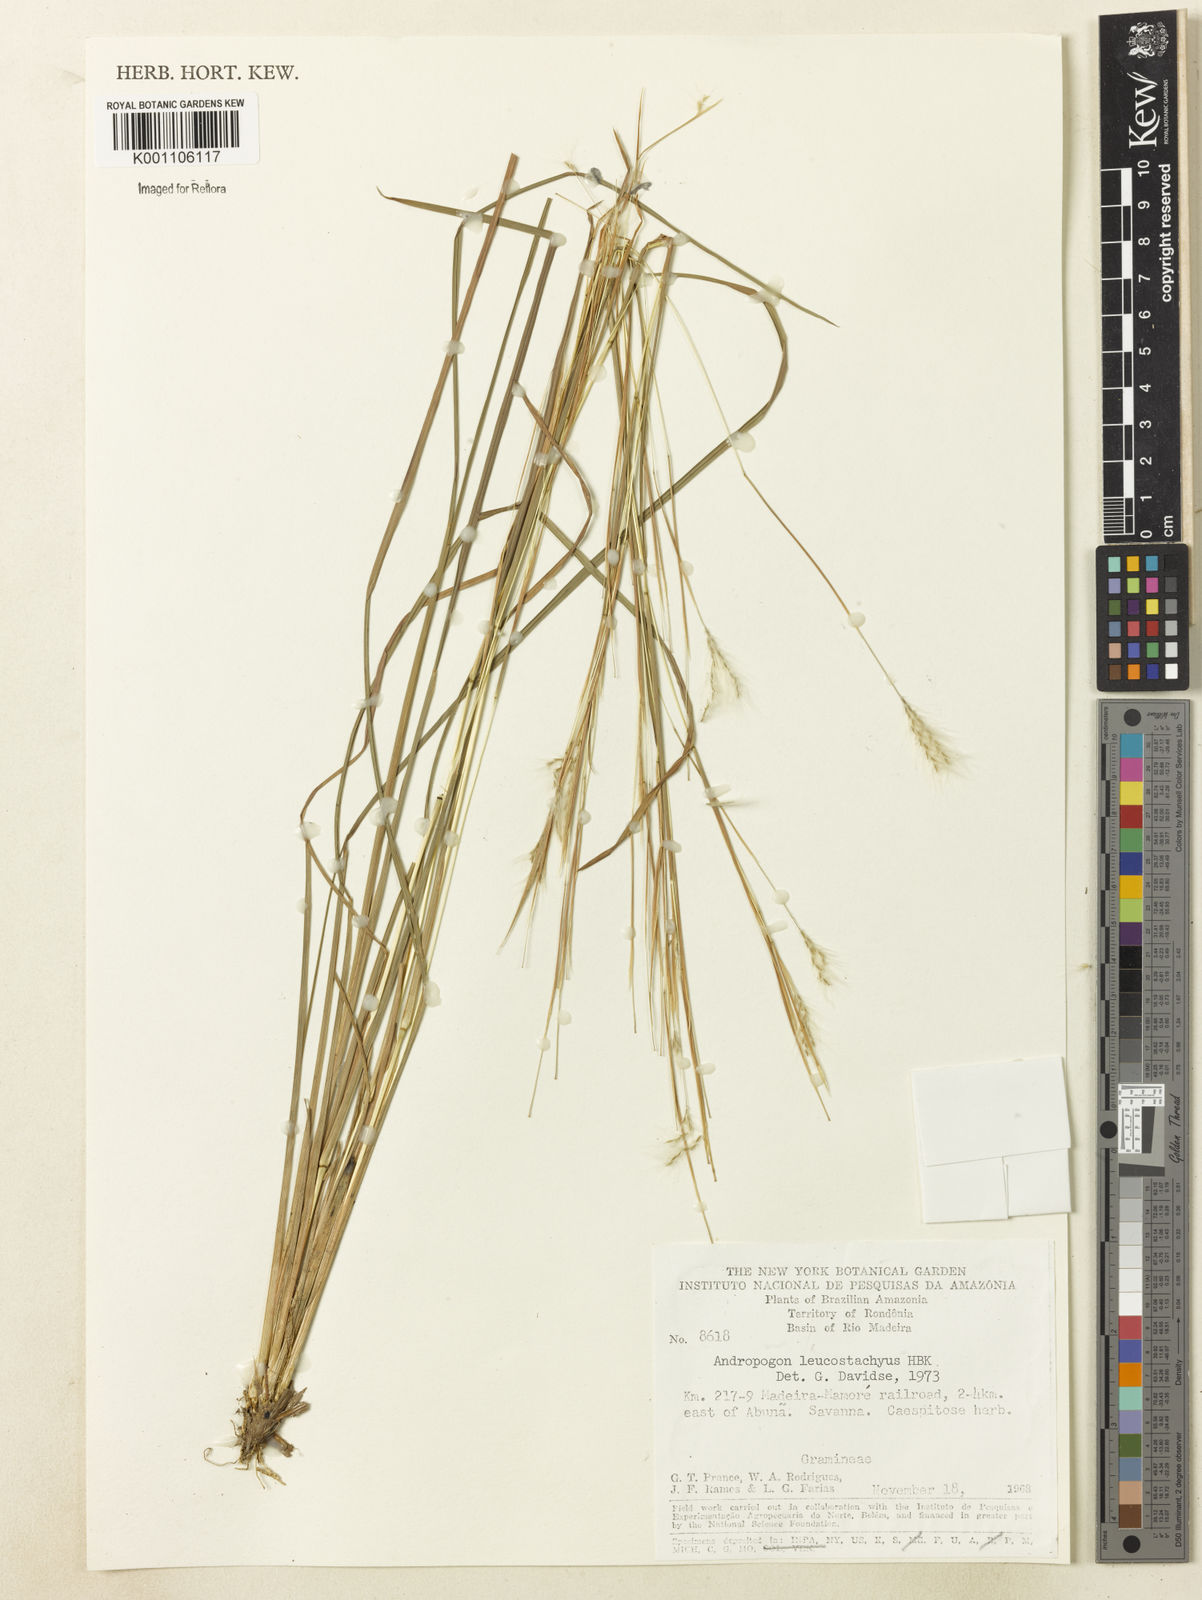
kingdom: Plantae
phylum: Tracheophyta
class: Liliopsida
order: Poales
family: Poaceae
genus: Andropogon
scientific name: Andropogon leucostachyus
